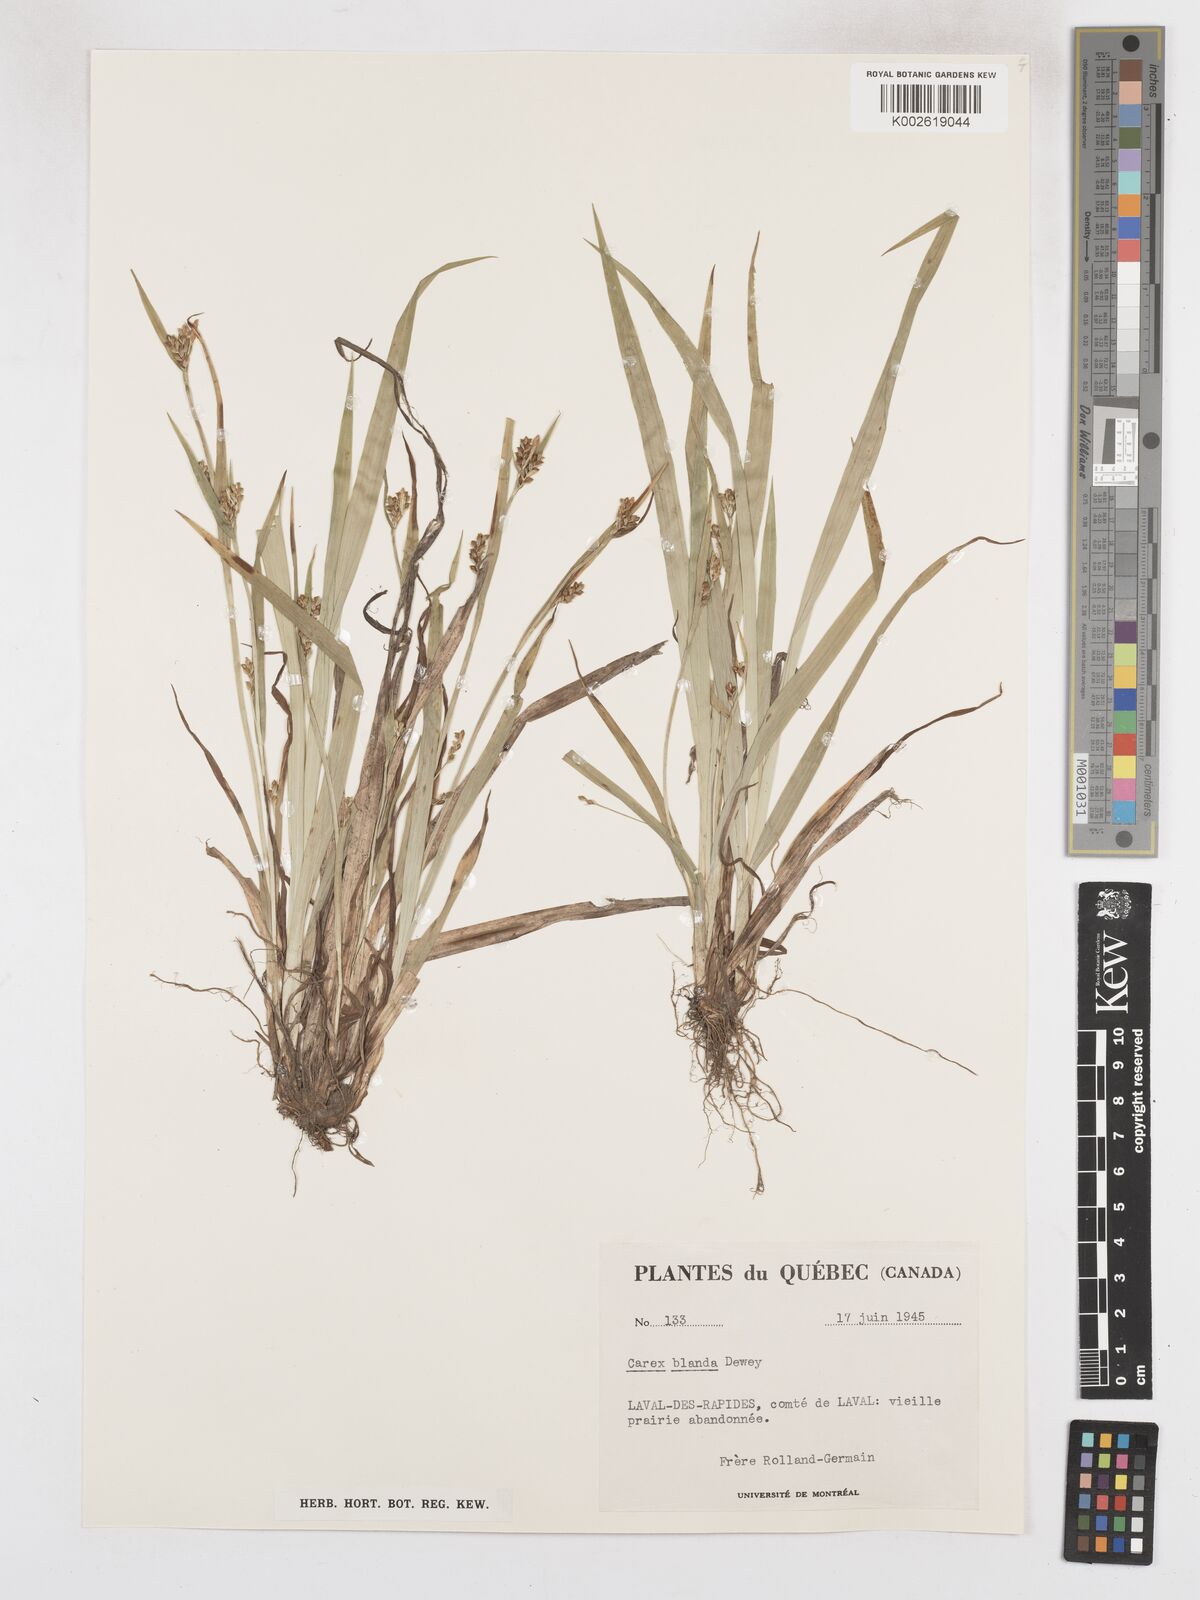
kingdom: Plantae
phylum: Tracheophyta
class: Liliopsida
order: Poales
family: Cyperaceae
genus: Carex
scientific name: Carex blanda
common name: Bland sedge
